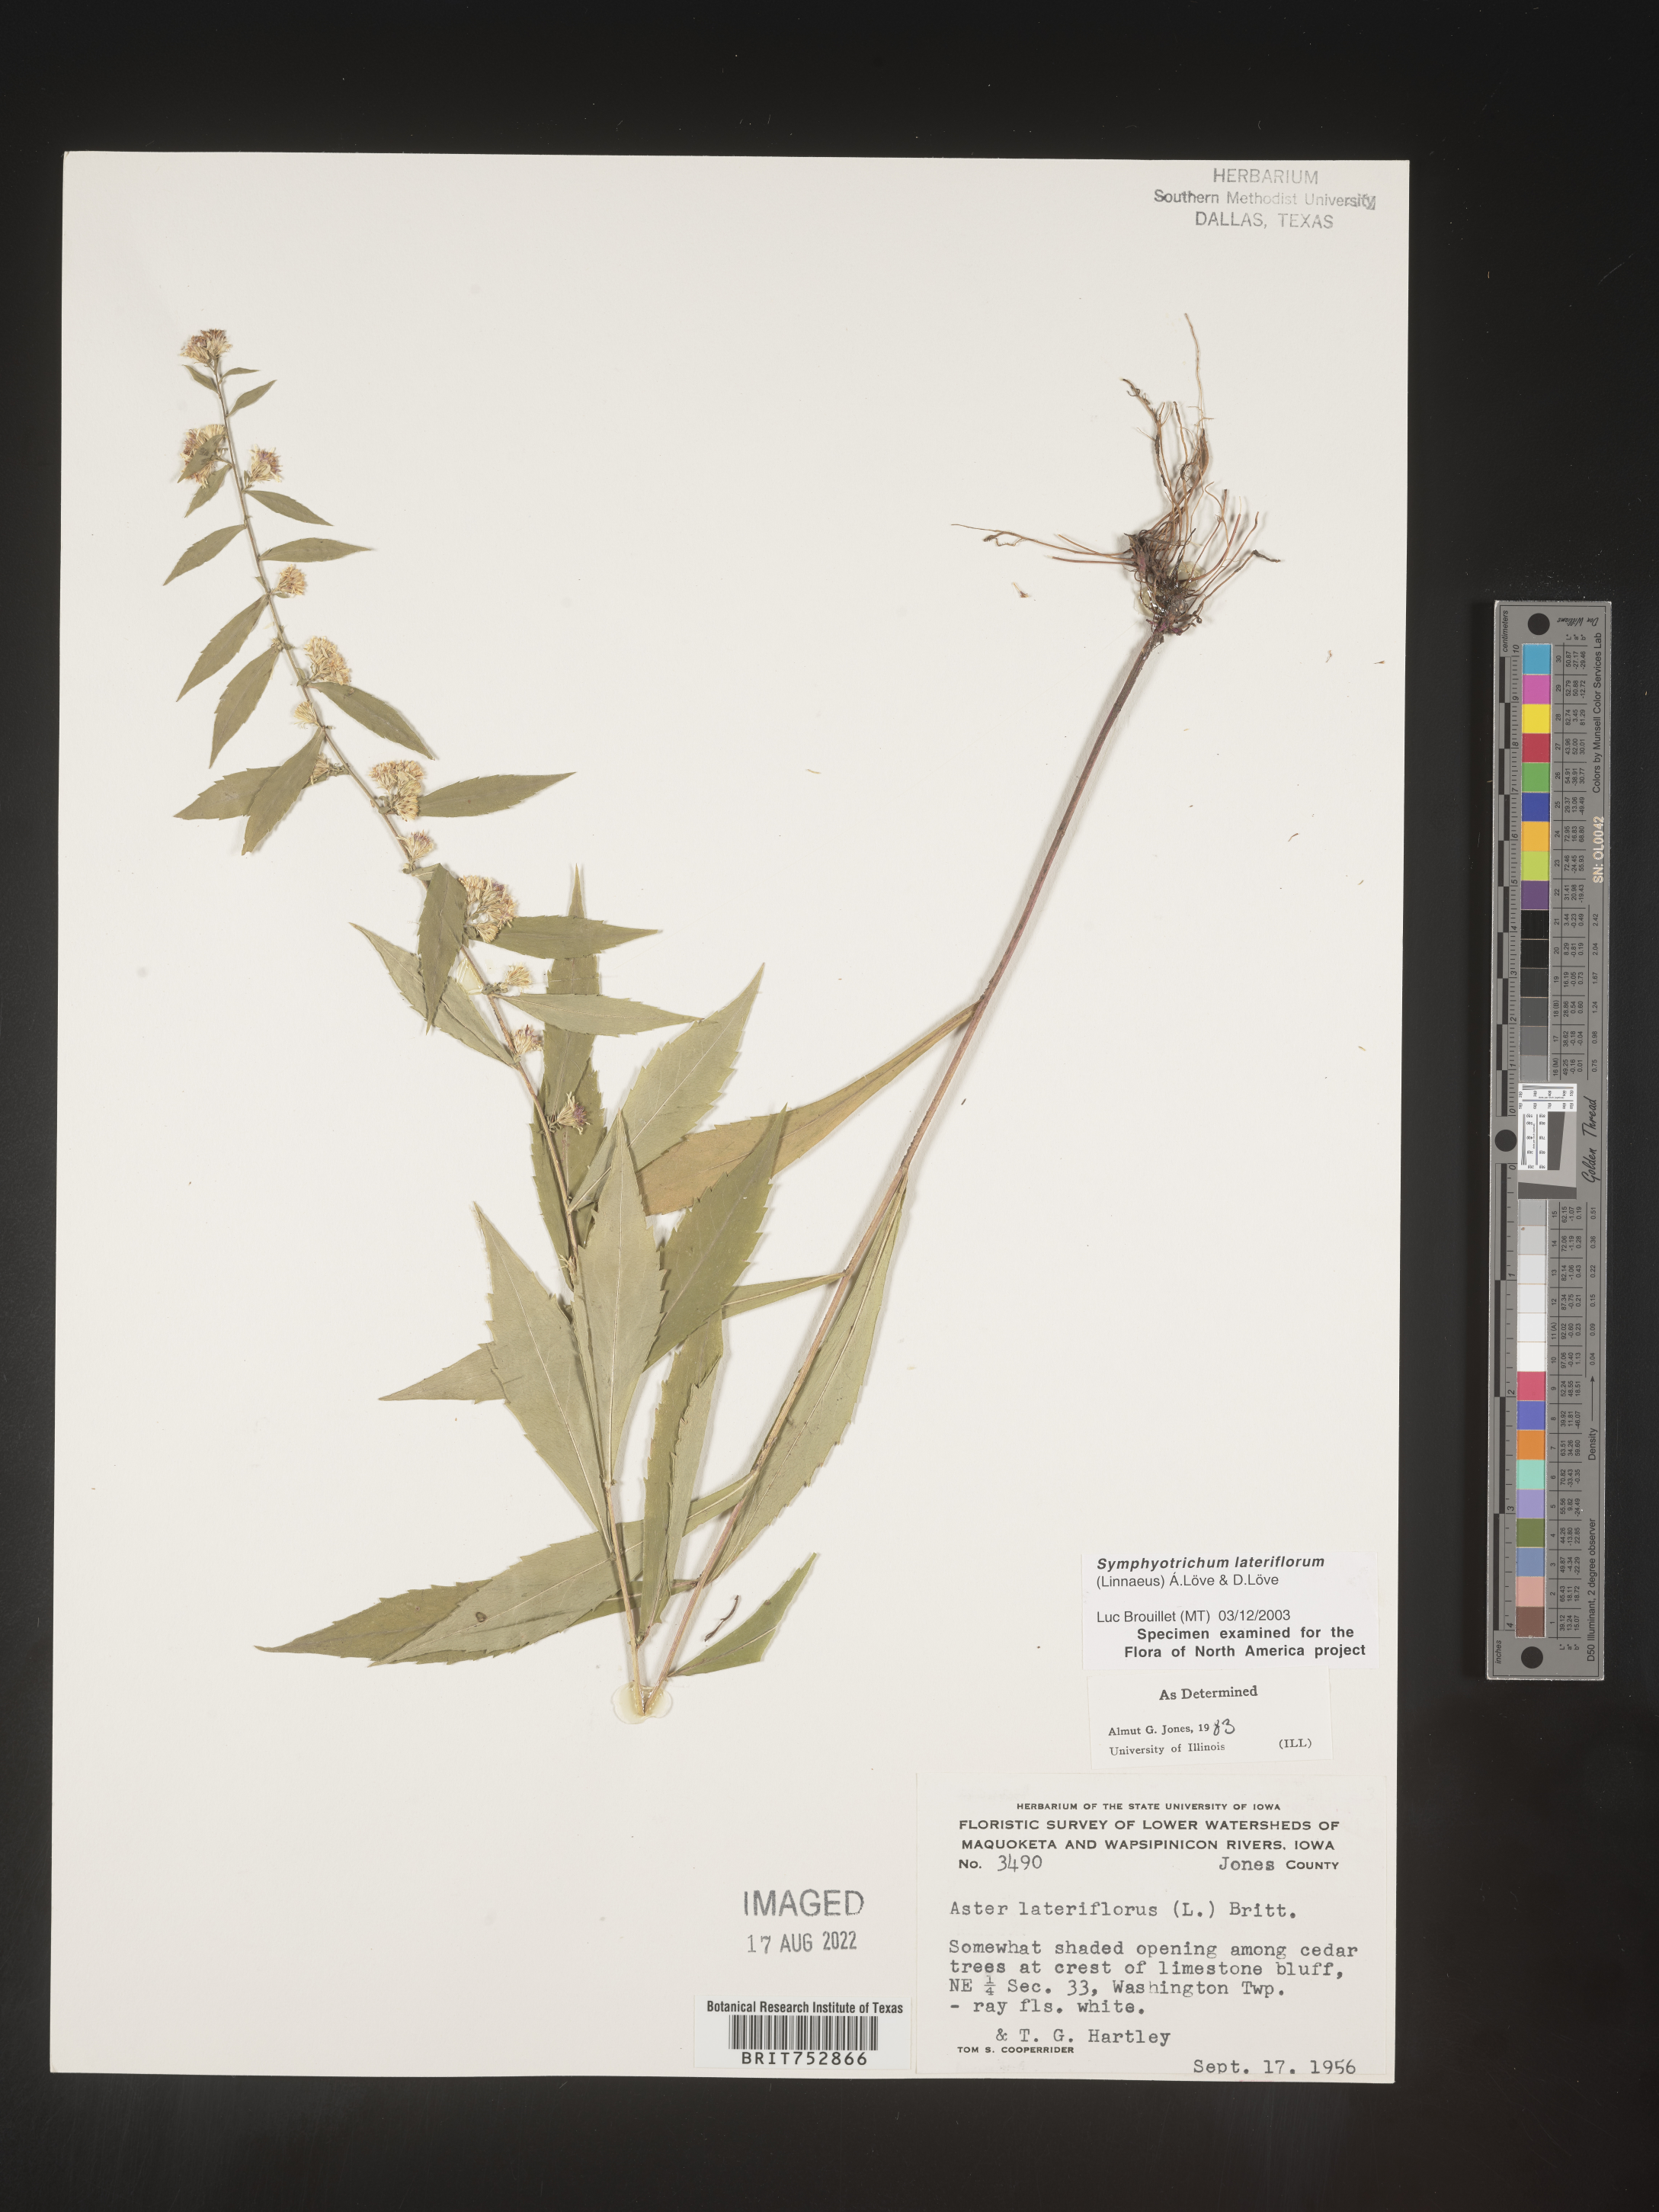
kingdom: Plantae
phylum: Tracheophyta
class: Magnoliopsida
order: Asterales
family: Asteraceae
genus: Symphyotrichum
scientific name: Symphyotrichum lateriflorum
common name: Calico aster
